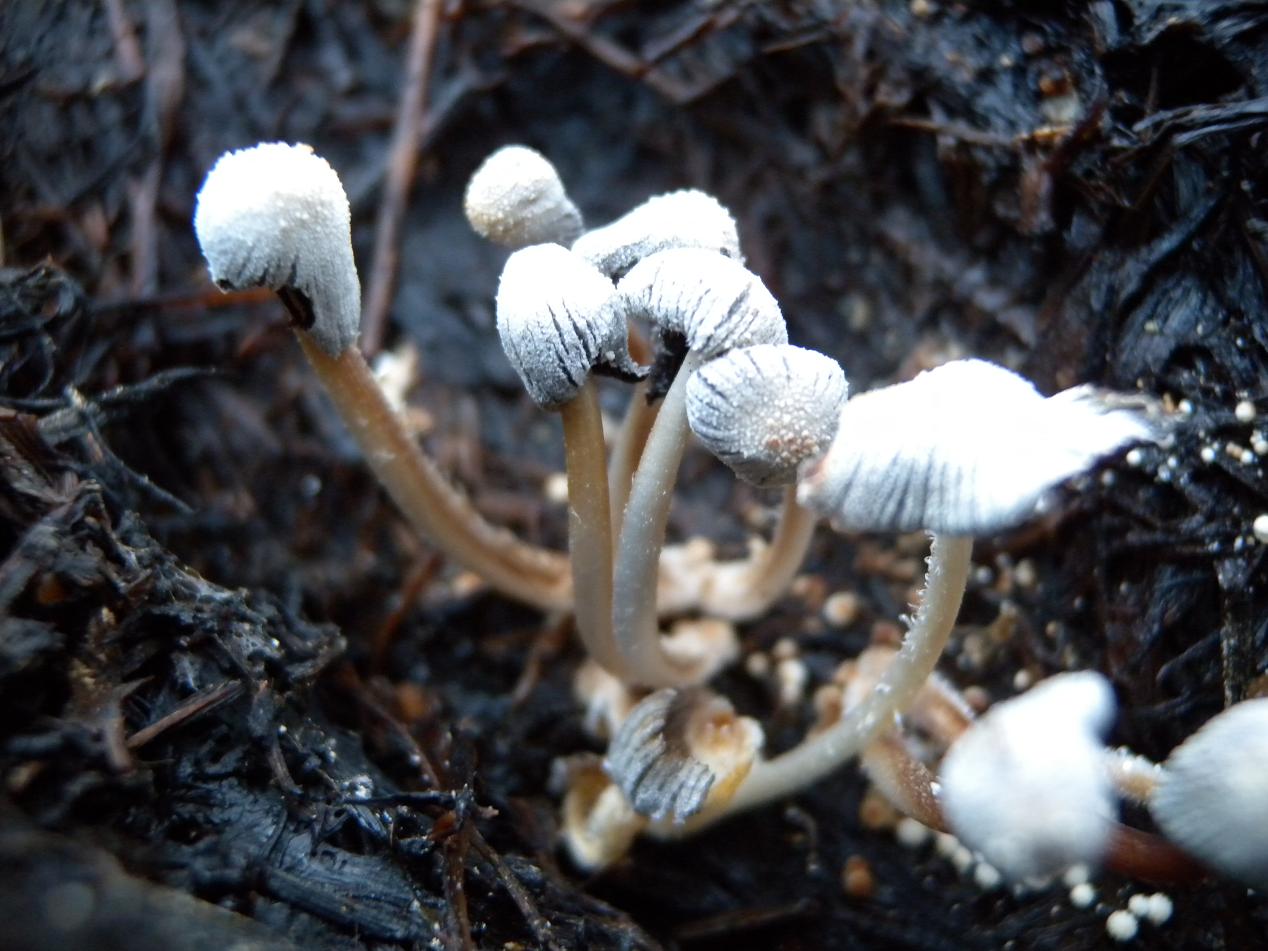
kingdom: Fungi
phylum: Basidiomycota
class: Agaricomycetes
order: Agaricales
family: Psathyrellaceae
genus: Narcissea
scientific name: Narcissea patouillardii
